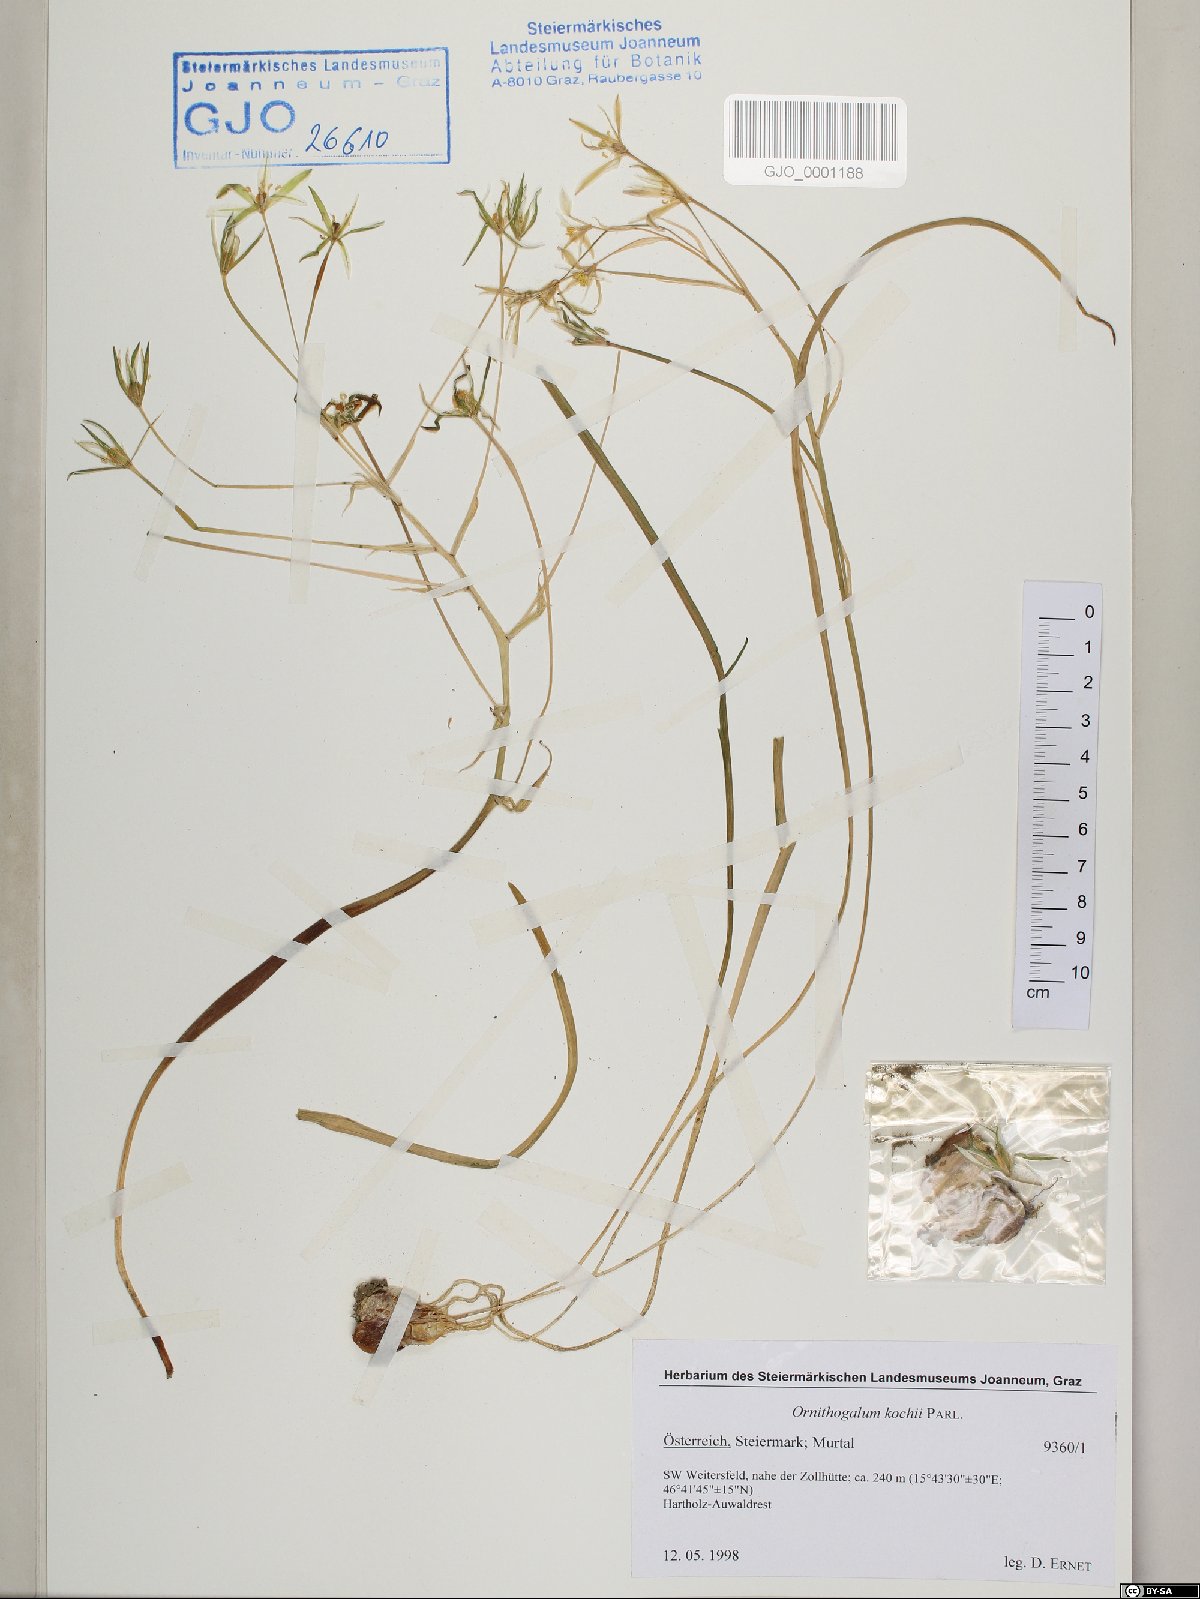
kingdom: Plantae
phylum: Tracheophyta
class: Liliopsida
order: Asparagales
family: Asparagaceae
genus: Ornithogalum
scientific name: Ornithogalum orthophyllum
